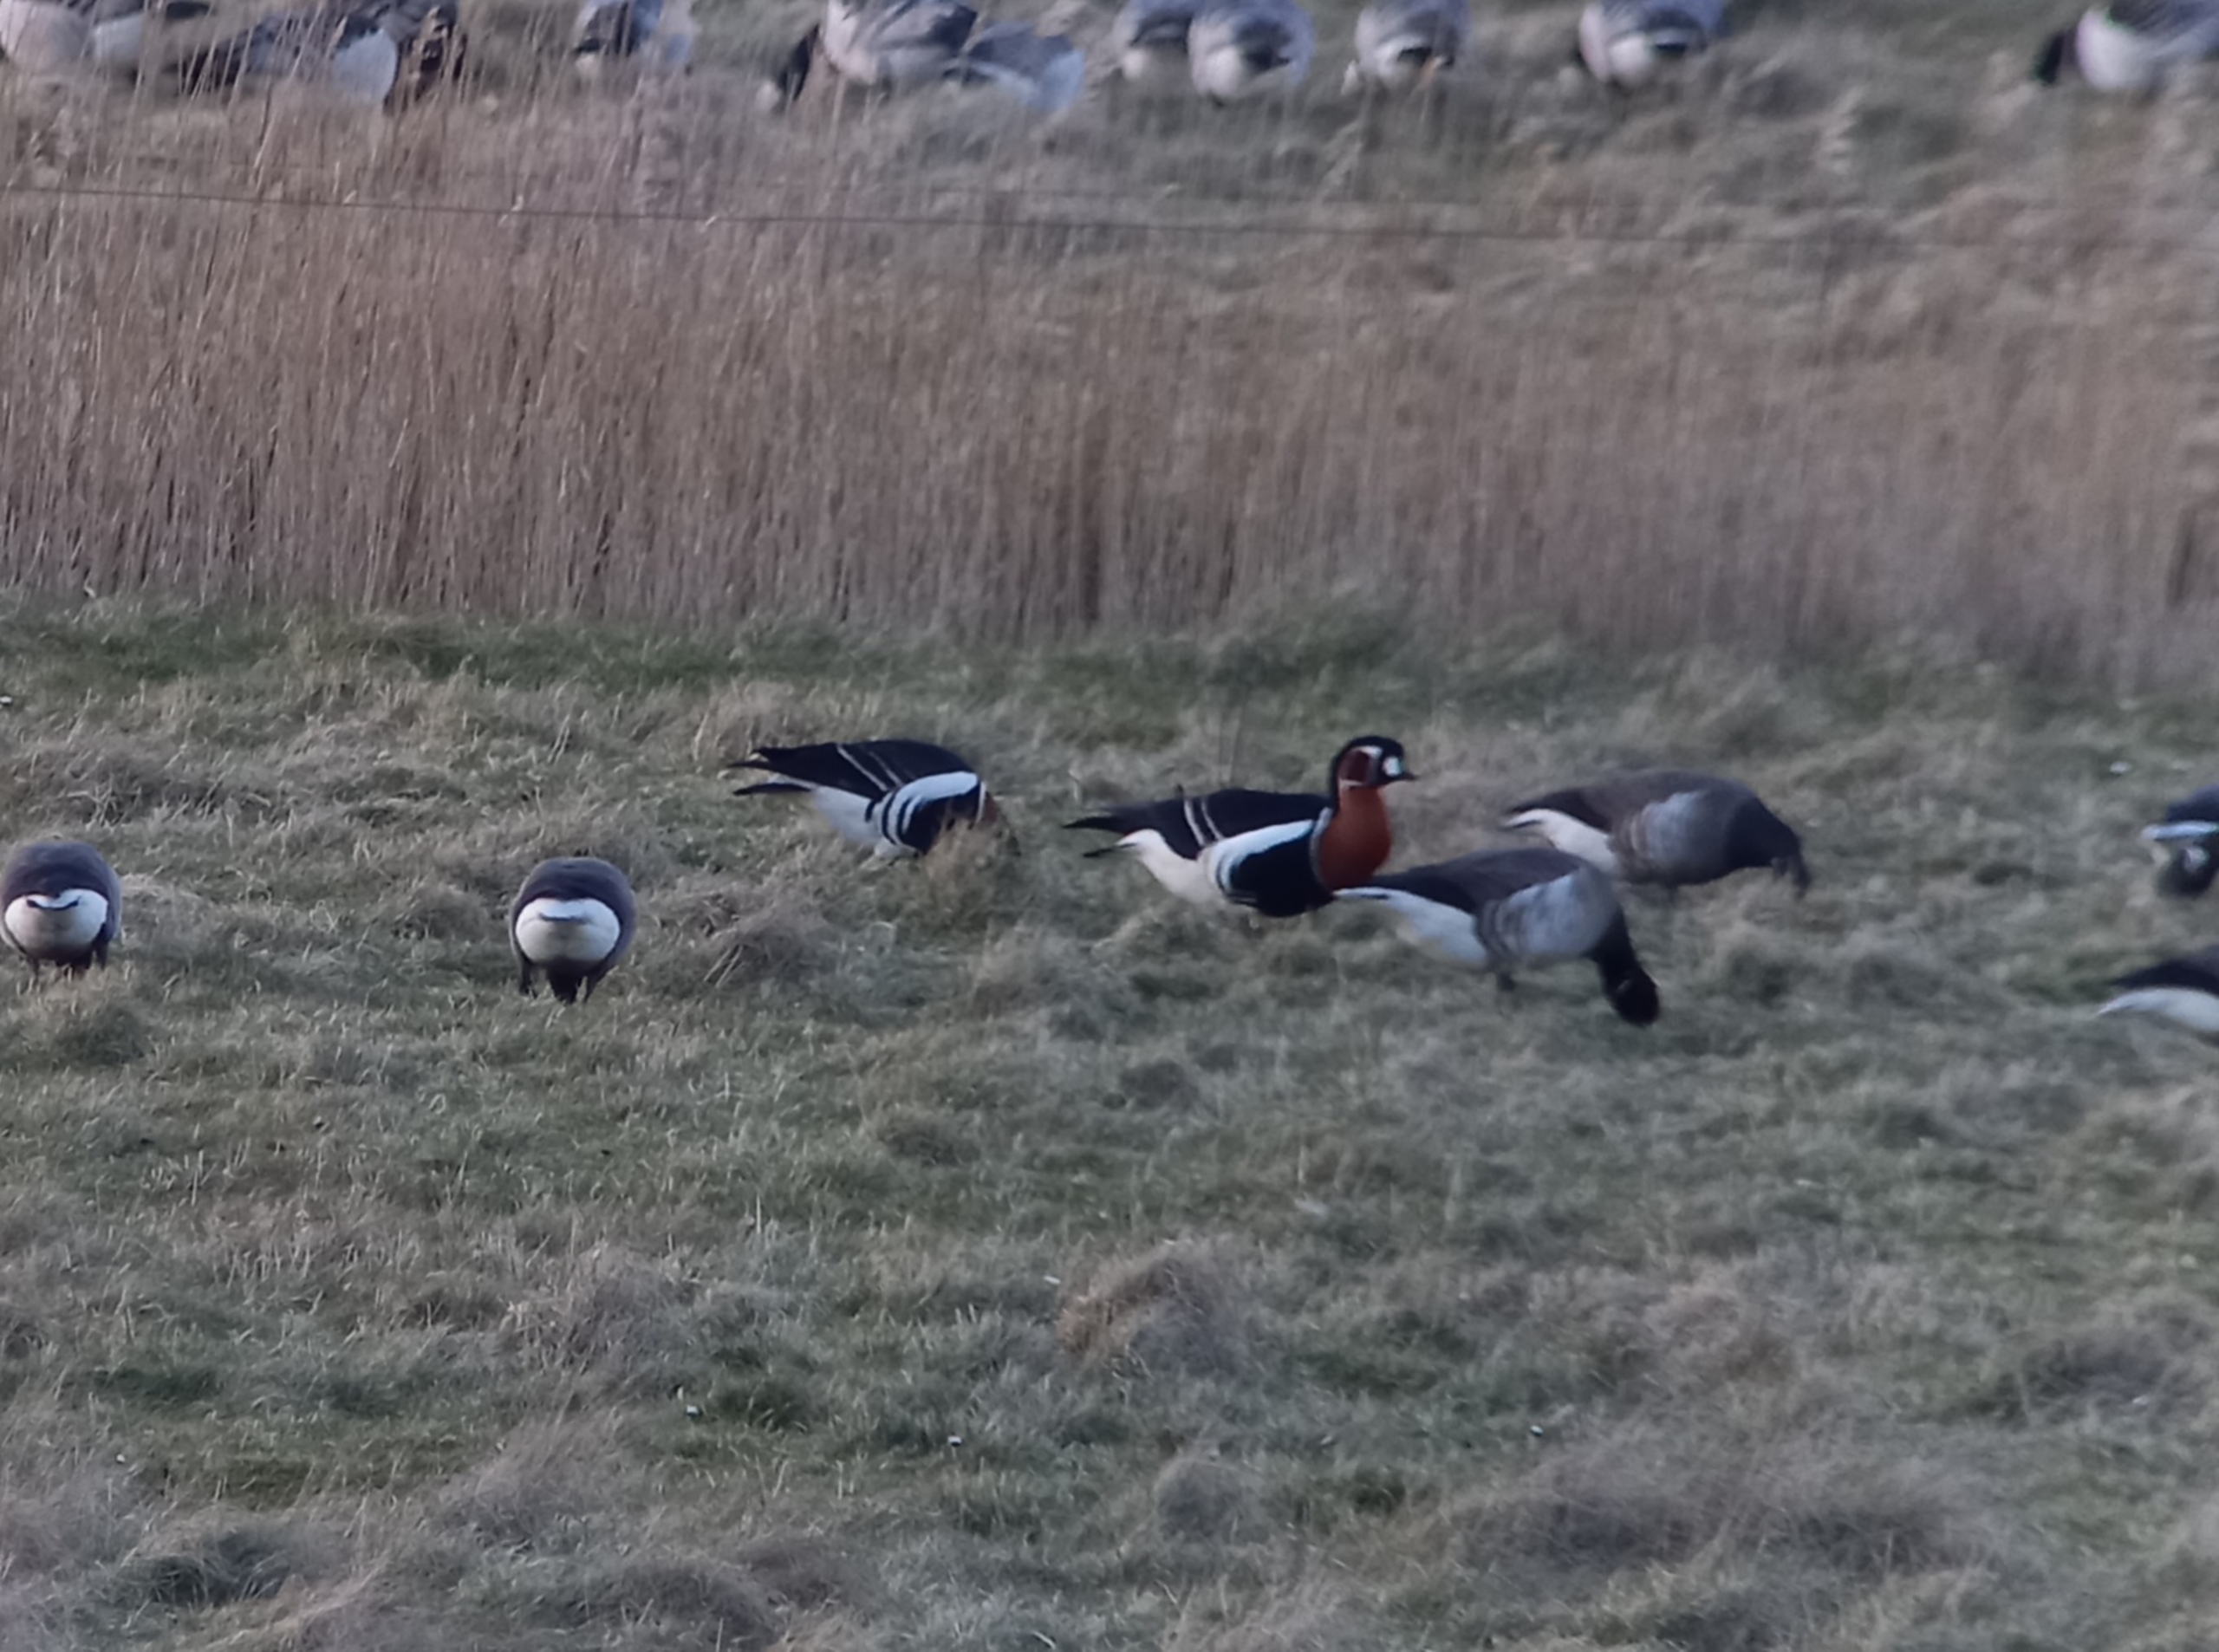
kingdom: Animalia
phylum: Chordata
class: Aves
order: Anseriformes
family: Anatidae
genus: Branta
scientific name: Branta ruficollis
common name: Rødhalset gås
